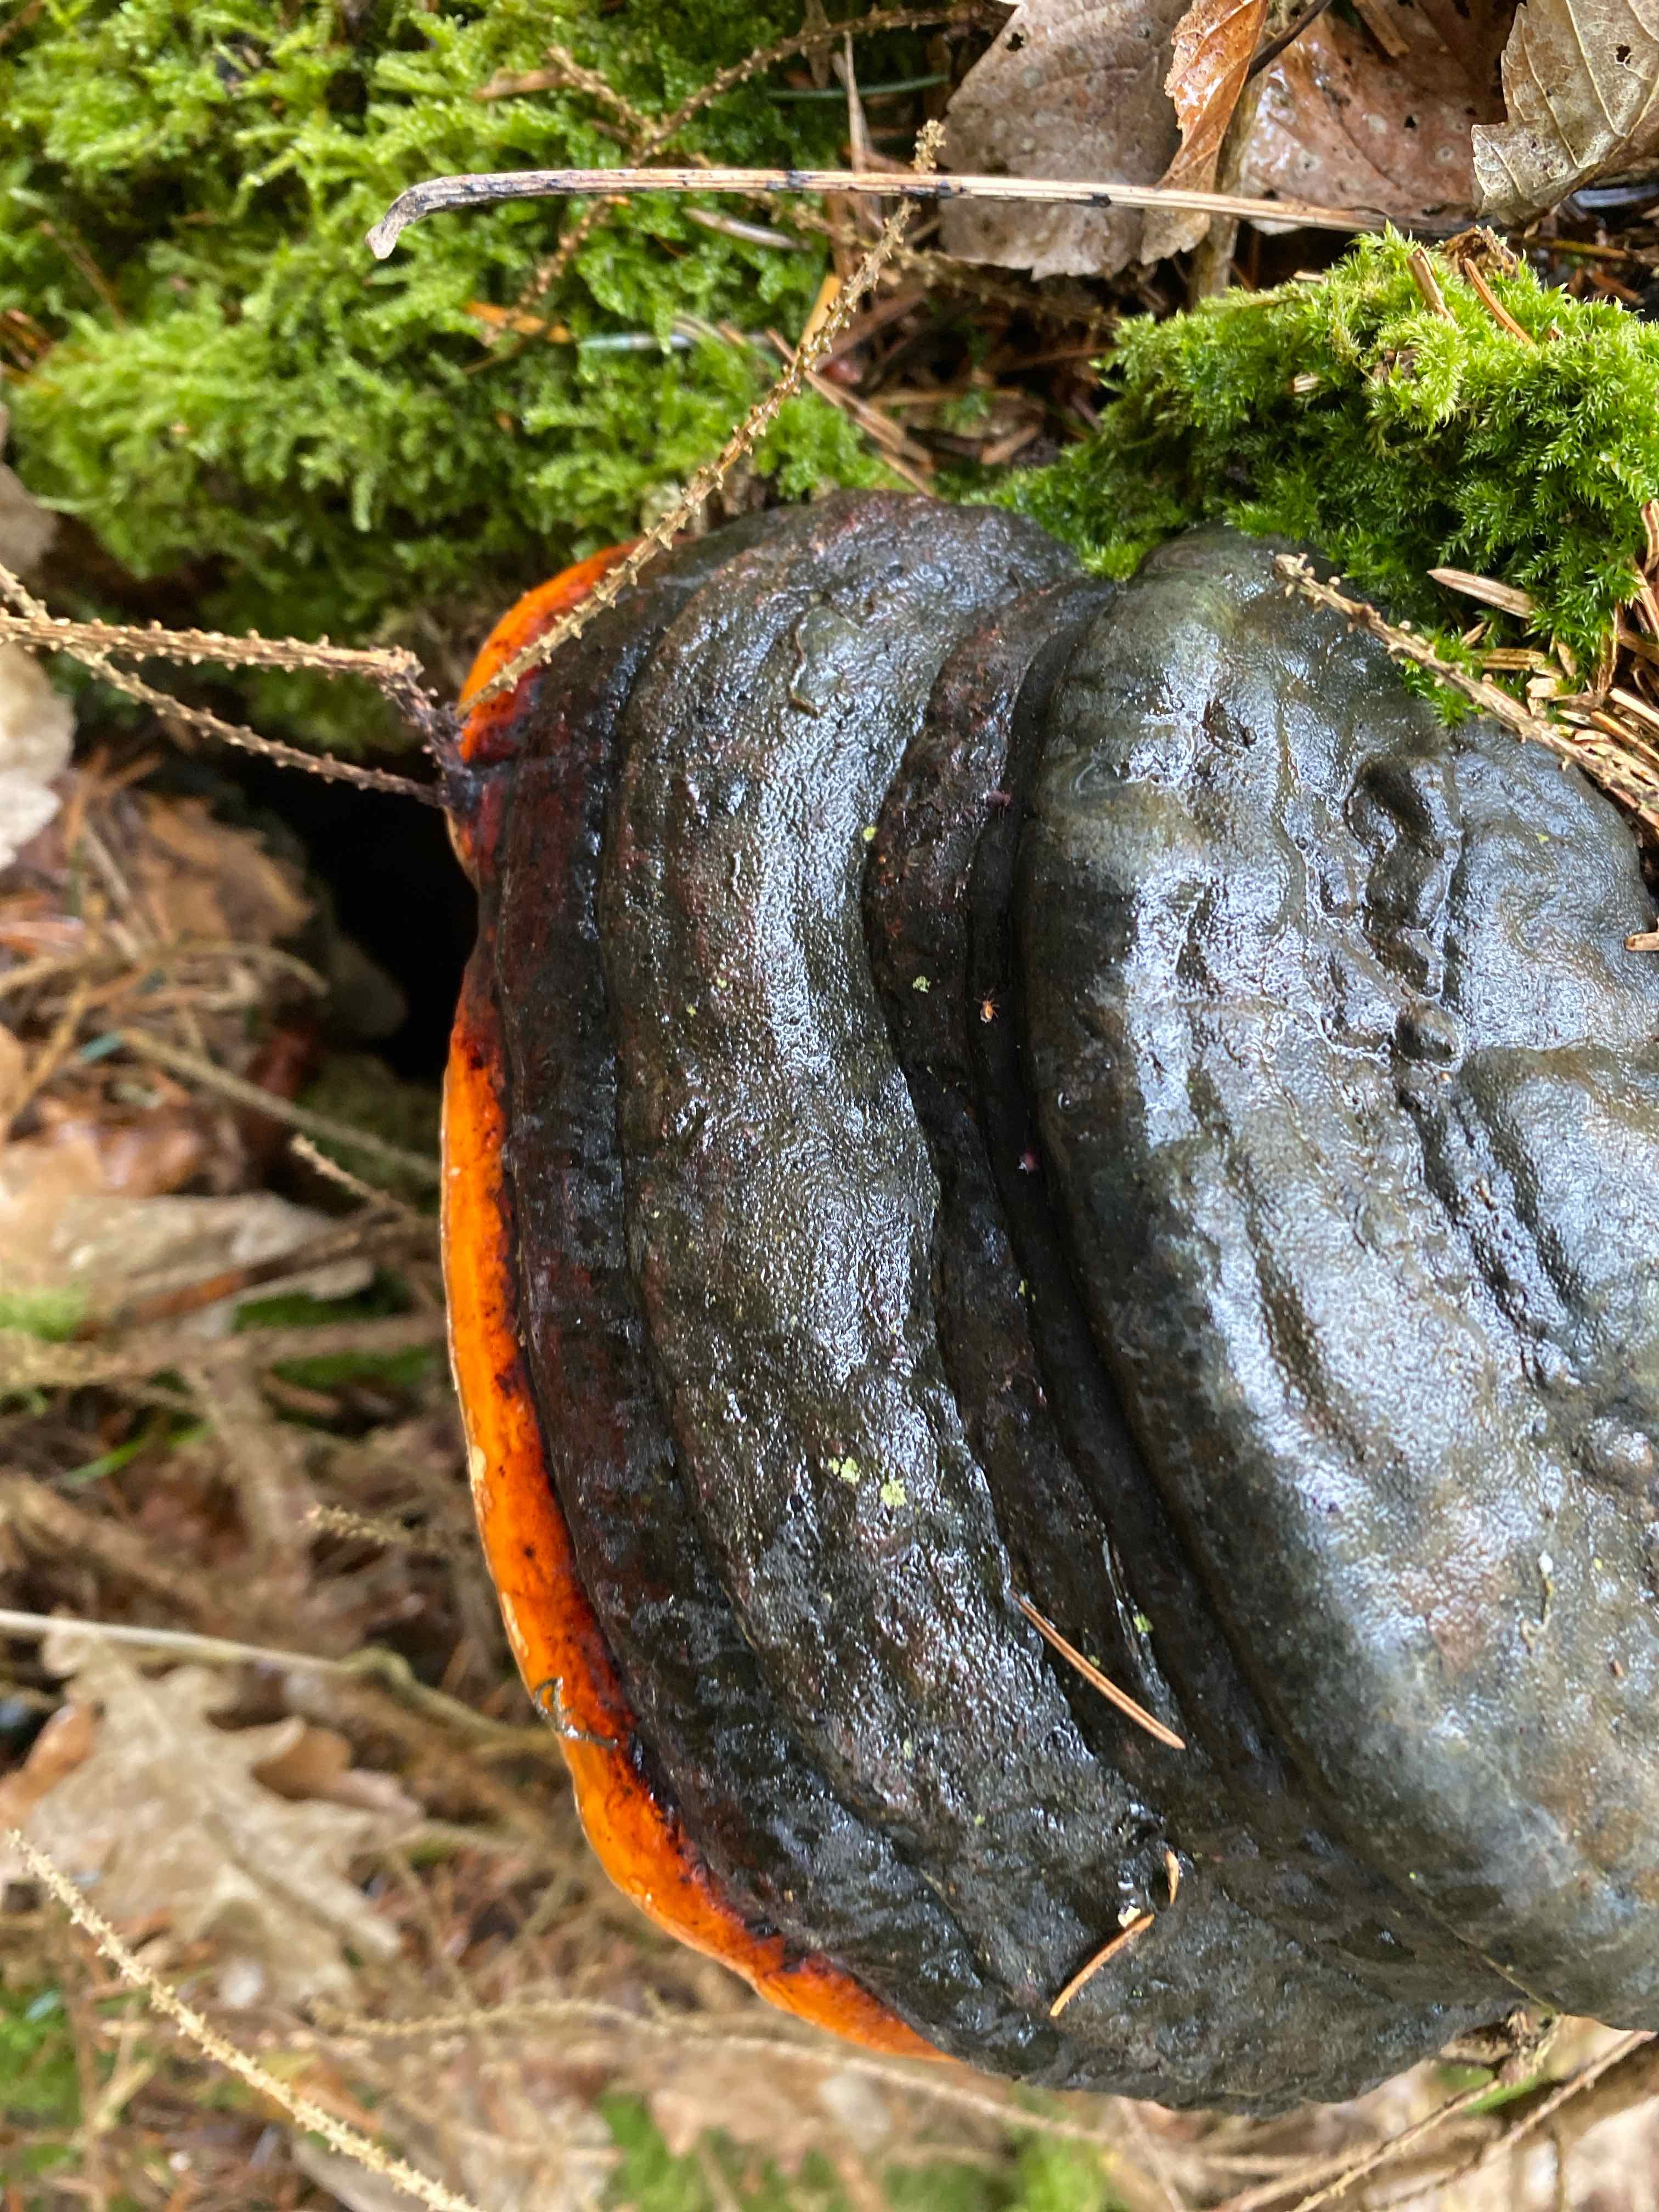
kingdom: Fungi
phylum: Basidiomycota
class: Agaricomycetes
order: Polyporales
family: Fomitopsidaceae
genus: Fomitopsis
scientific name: Fomitopsis pinicola
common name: randbæltet hovporesvamp
